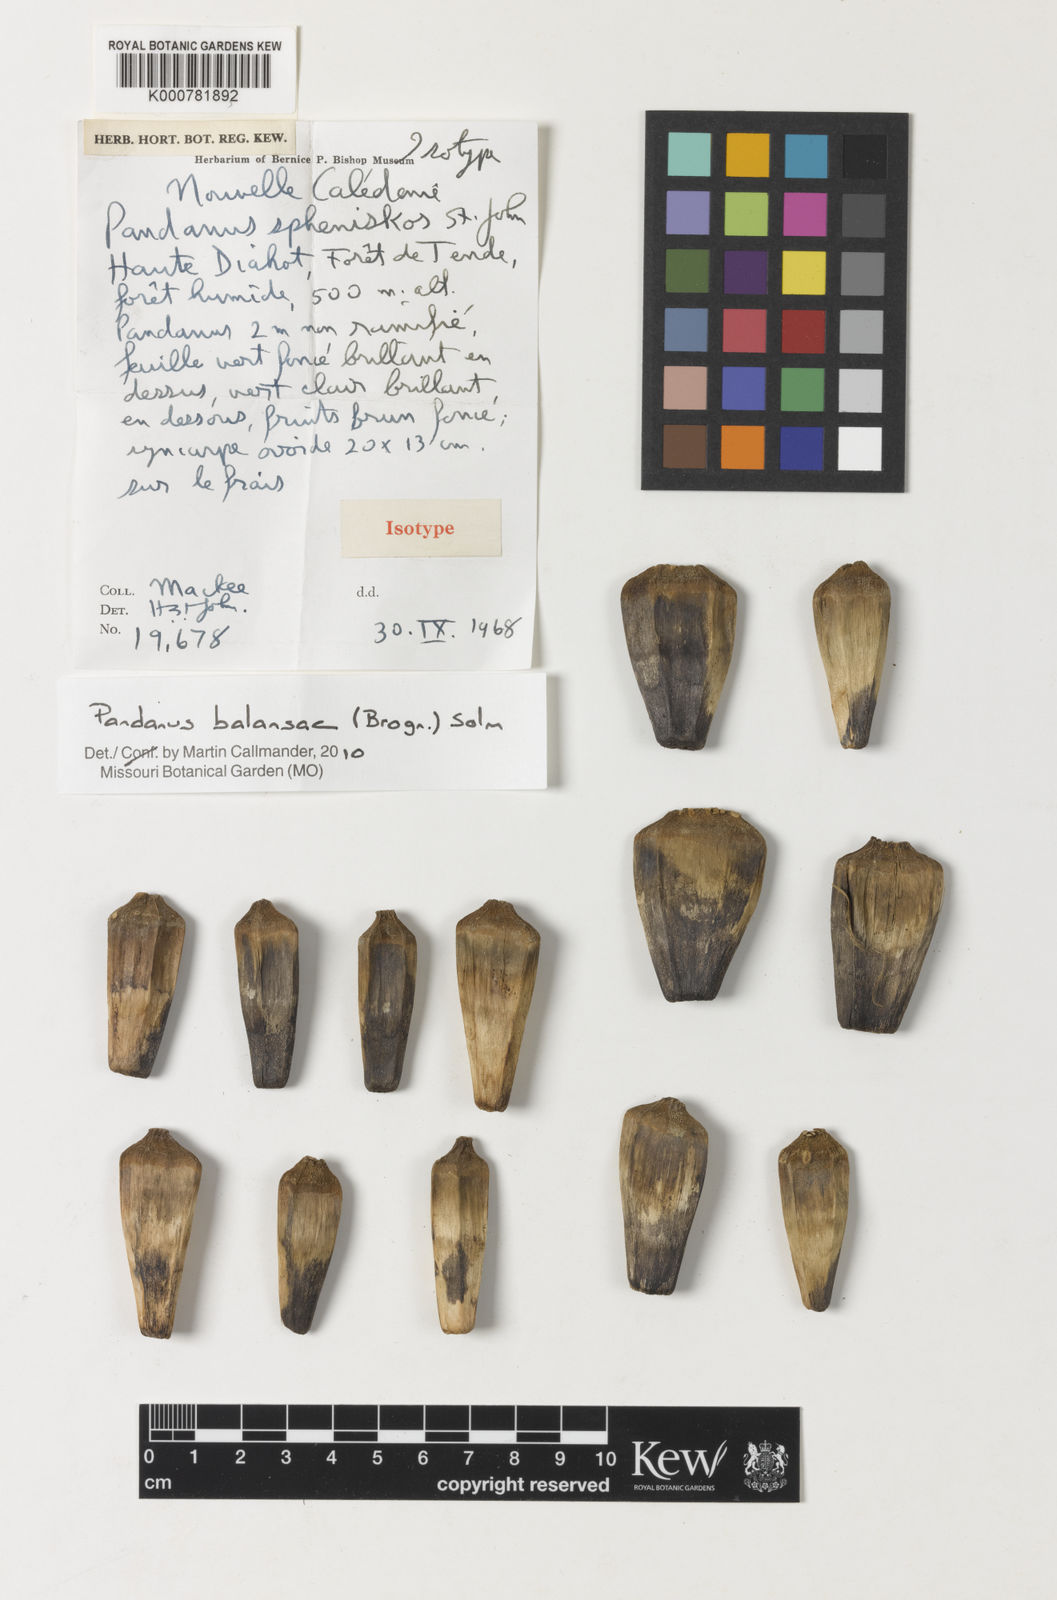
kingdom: Plantae
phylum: Tracheophyta
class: Liliopsida
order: Pandanales
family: Pandanaceae
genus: Pandanus
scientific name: Pandanus balansae
